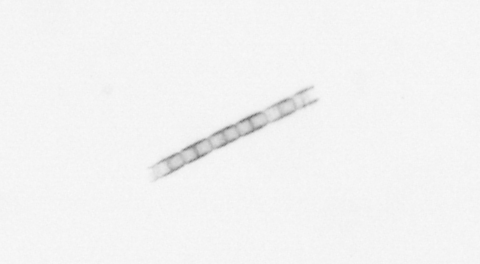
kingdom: Chromista
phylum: Ochrophyta
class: Bacillariophyceae
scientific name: Bacillariophyceae
